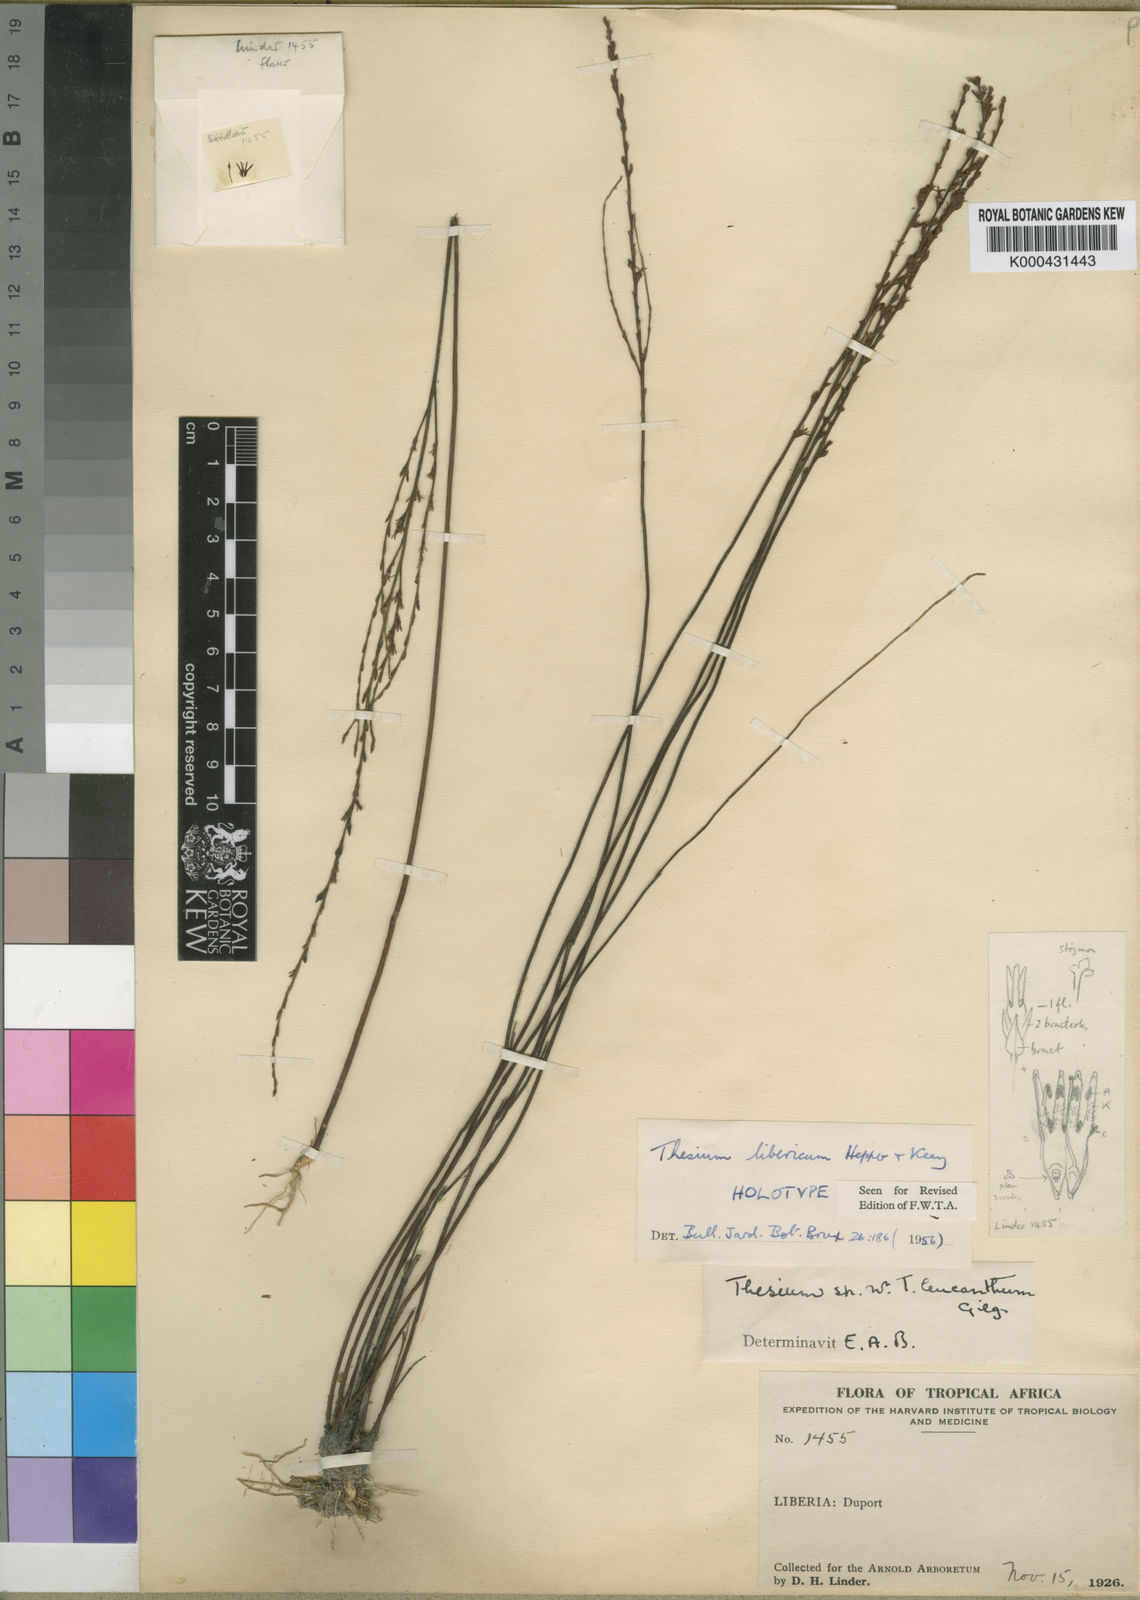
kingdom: Plantae
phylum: Tracheophyta
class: Magnoliopsida
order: Santalales
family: Thesiaceae
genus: Thesium
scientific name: Thesium libericum
